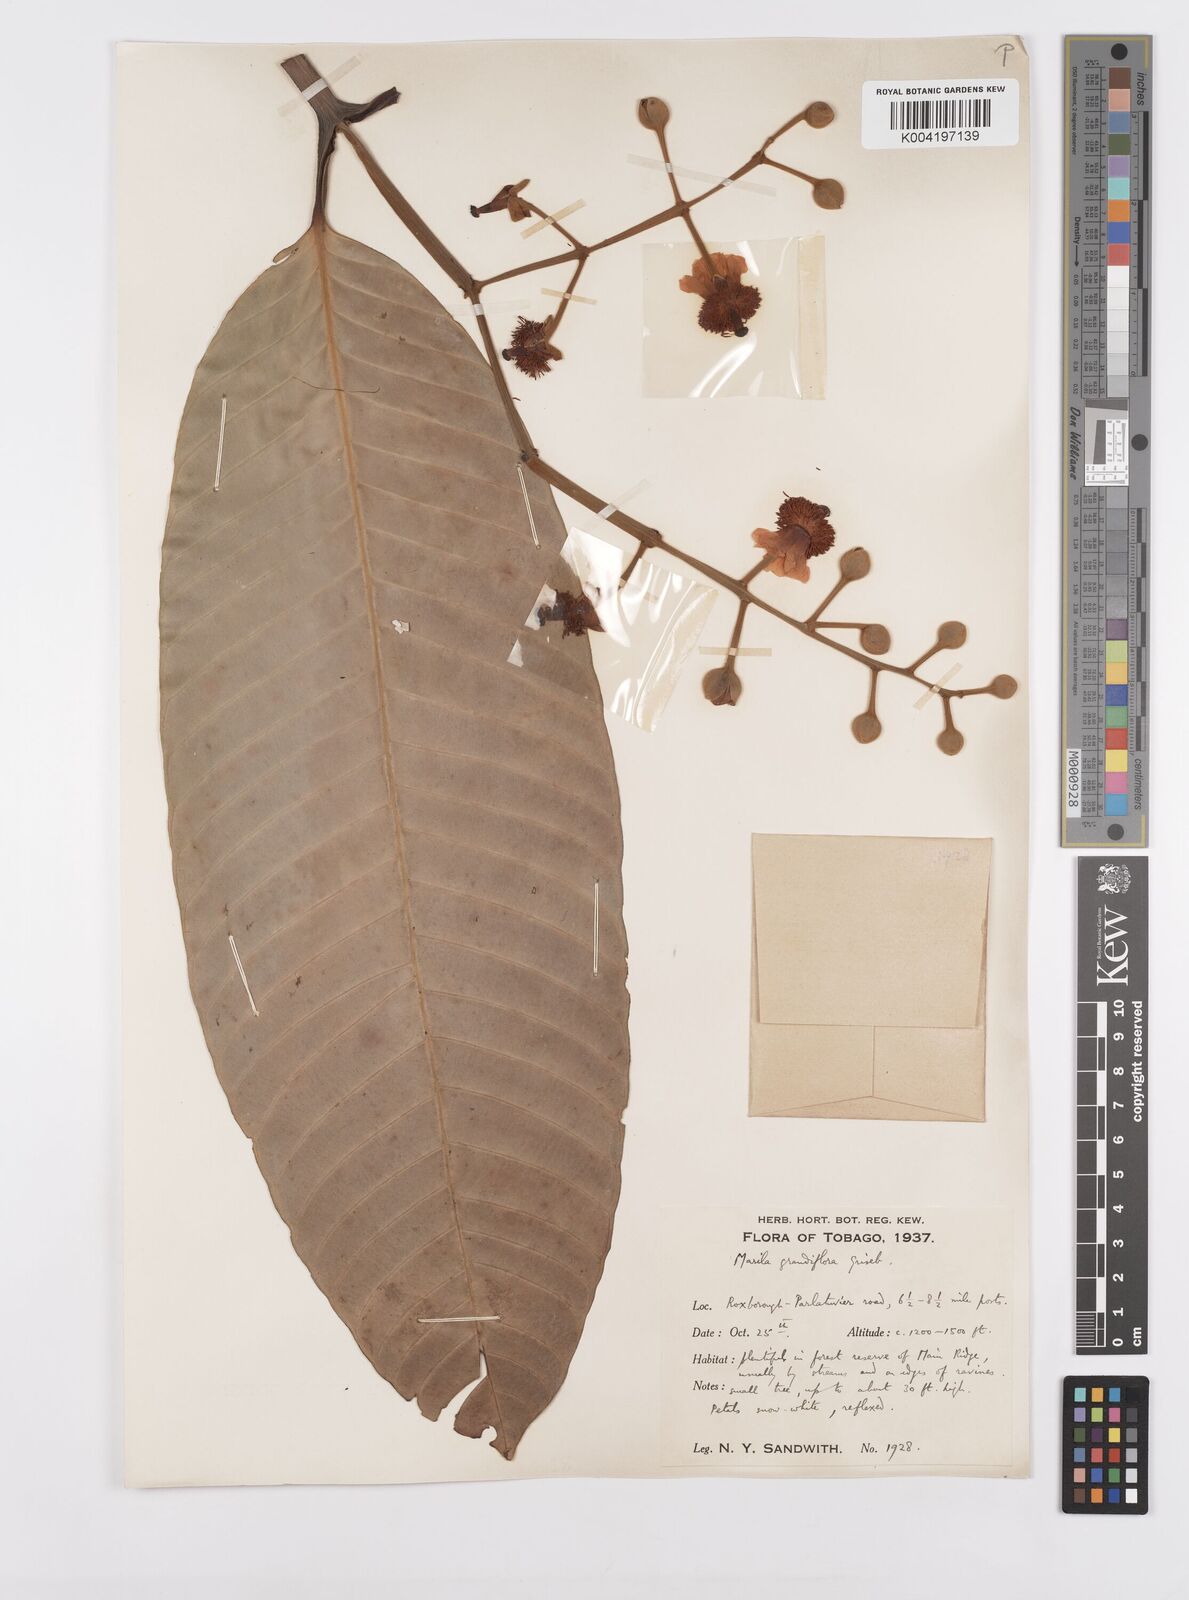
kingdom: Plantae
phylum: Tracheophyta
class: Magnoliopsida
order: Malpighiales
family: Calophyllaceae
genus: Marila
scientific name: Marila grandiflora
